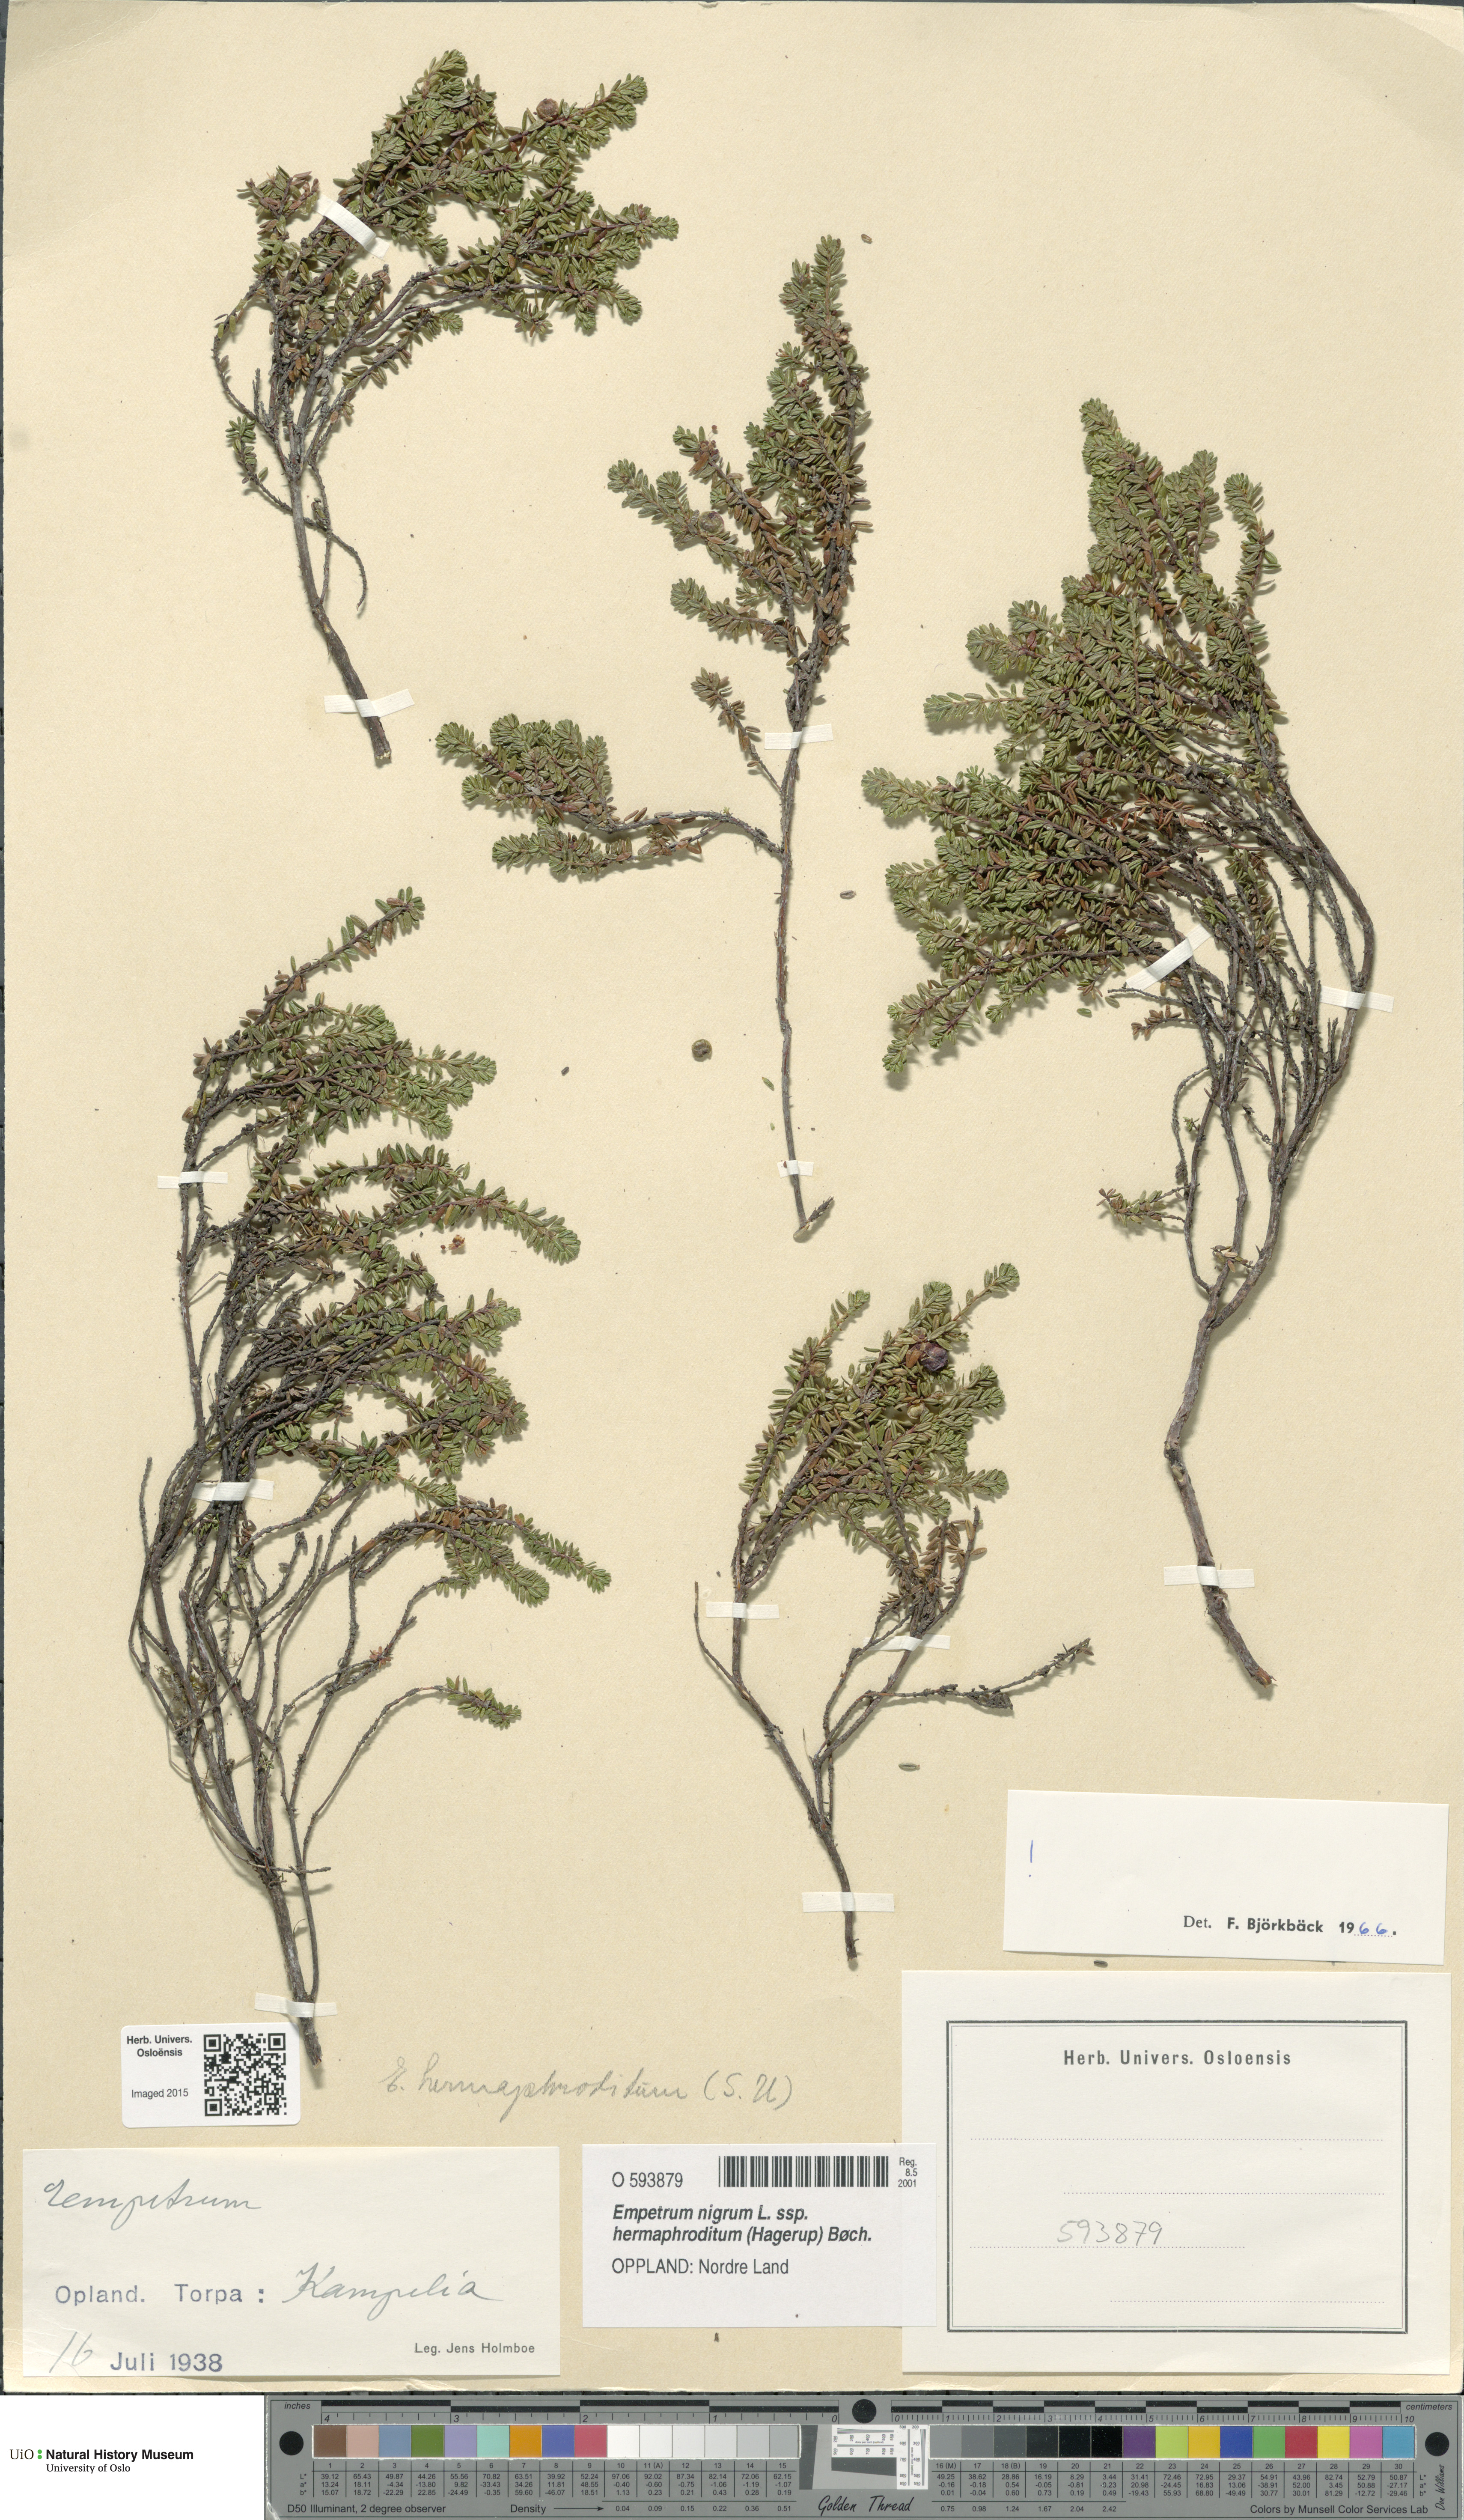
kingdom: Plantae
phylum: Tracheophyta
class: Magnoliopsida
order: Ericales
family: Ericaceae
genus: Empetrum
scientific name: Empetrum hermaphroditum
